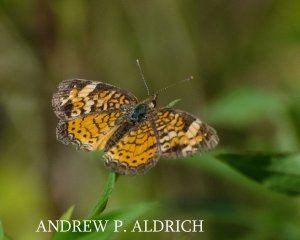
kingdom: Animalia
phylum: Arthropoda
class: Insecta
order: Lepidoptera
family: Nymphalidae
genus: Phyciodes
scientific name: Phyciodes
